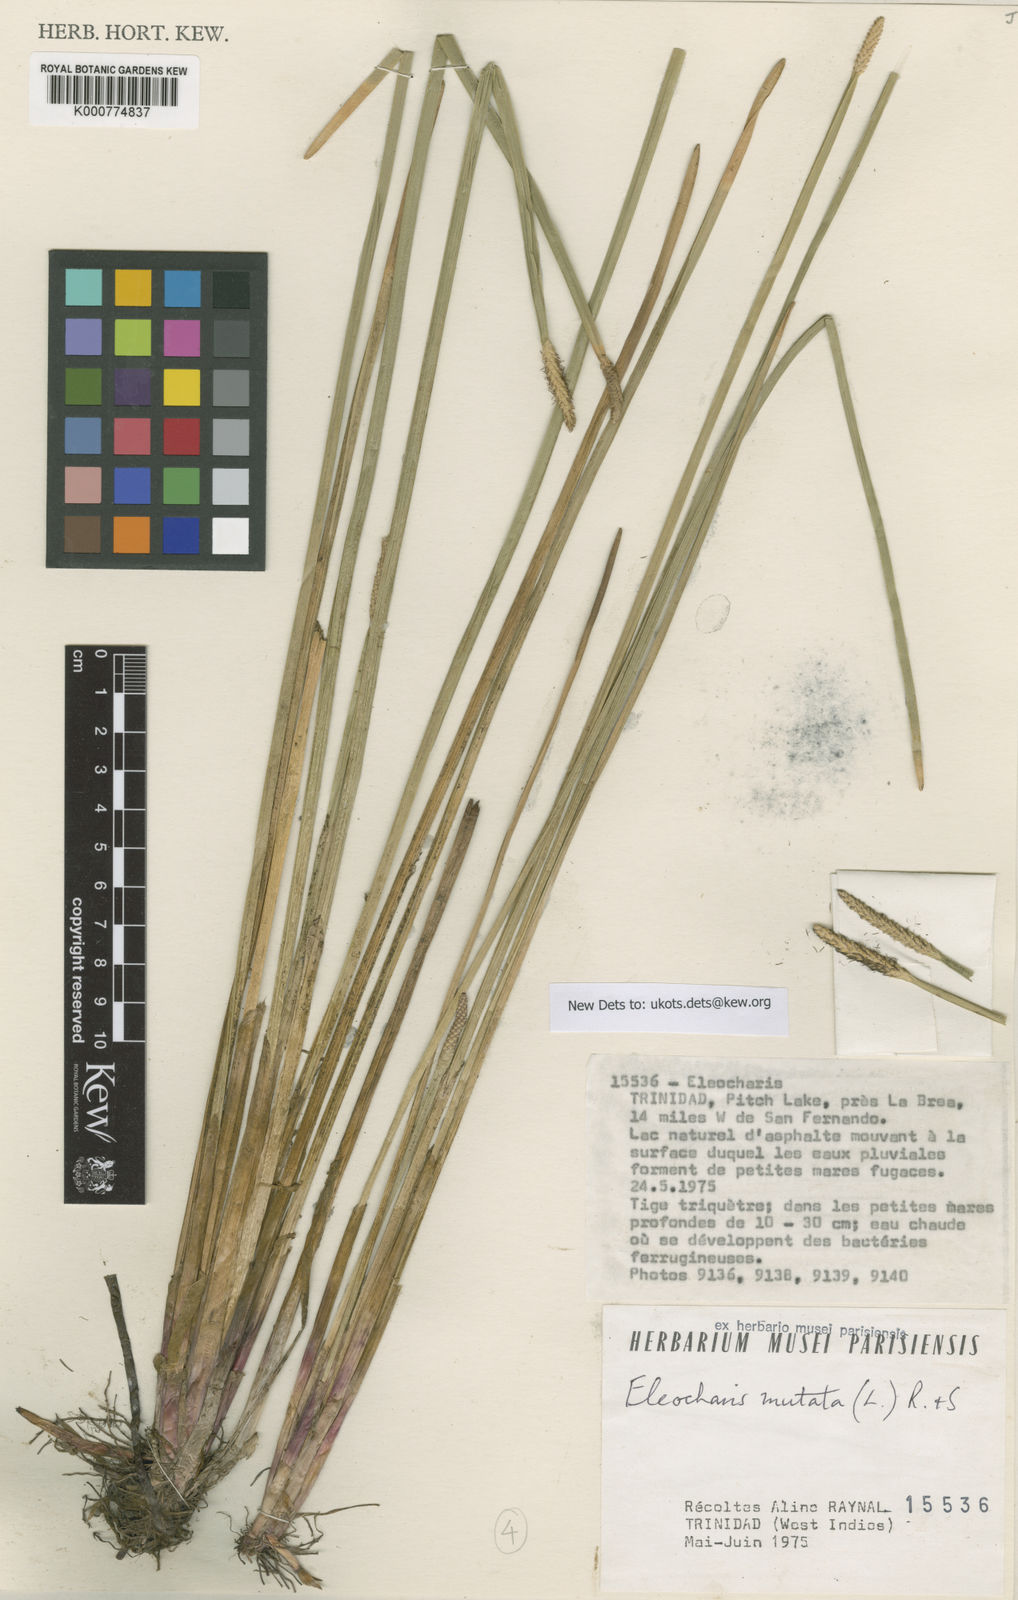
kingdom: Plantae
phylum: Tracheophyta
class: Liliopsida
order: Poales
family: Cyperaceae
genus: Eleocharis
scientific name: Eleocharis mutata
